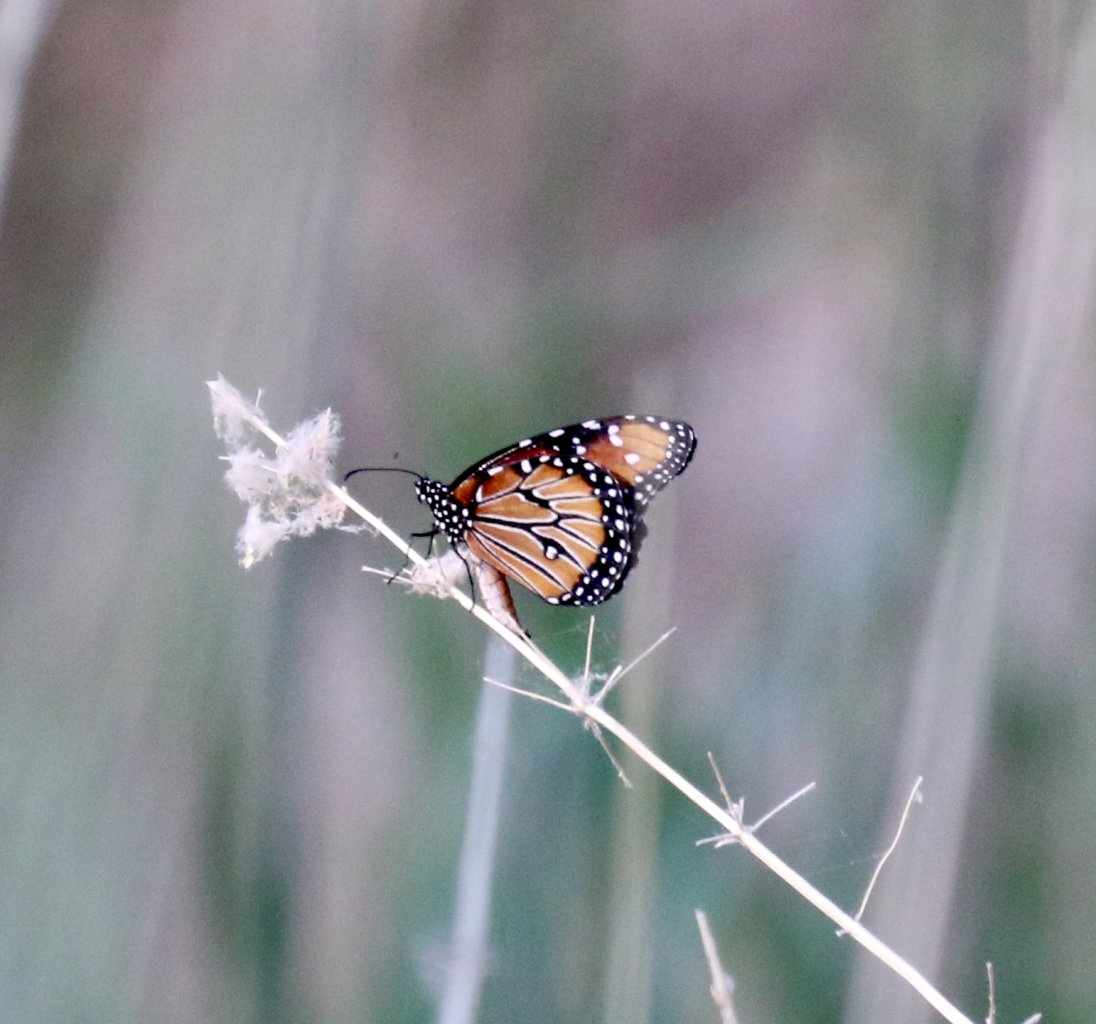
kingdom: Animalia
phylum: Arthropoda
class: Insecta
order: Lepidoptera
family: Nymphalidae
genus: Danaus
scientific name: Danaus gilippus
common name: Queen
